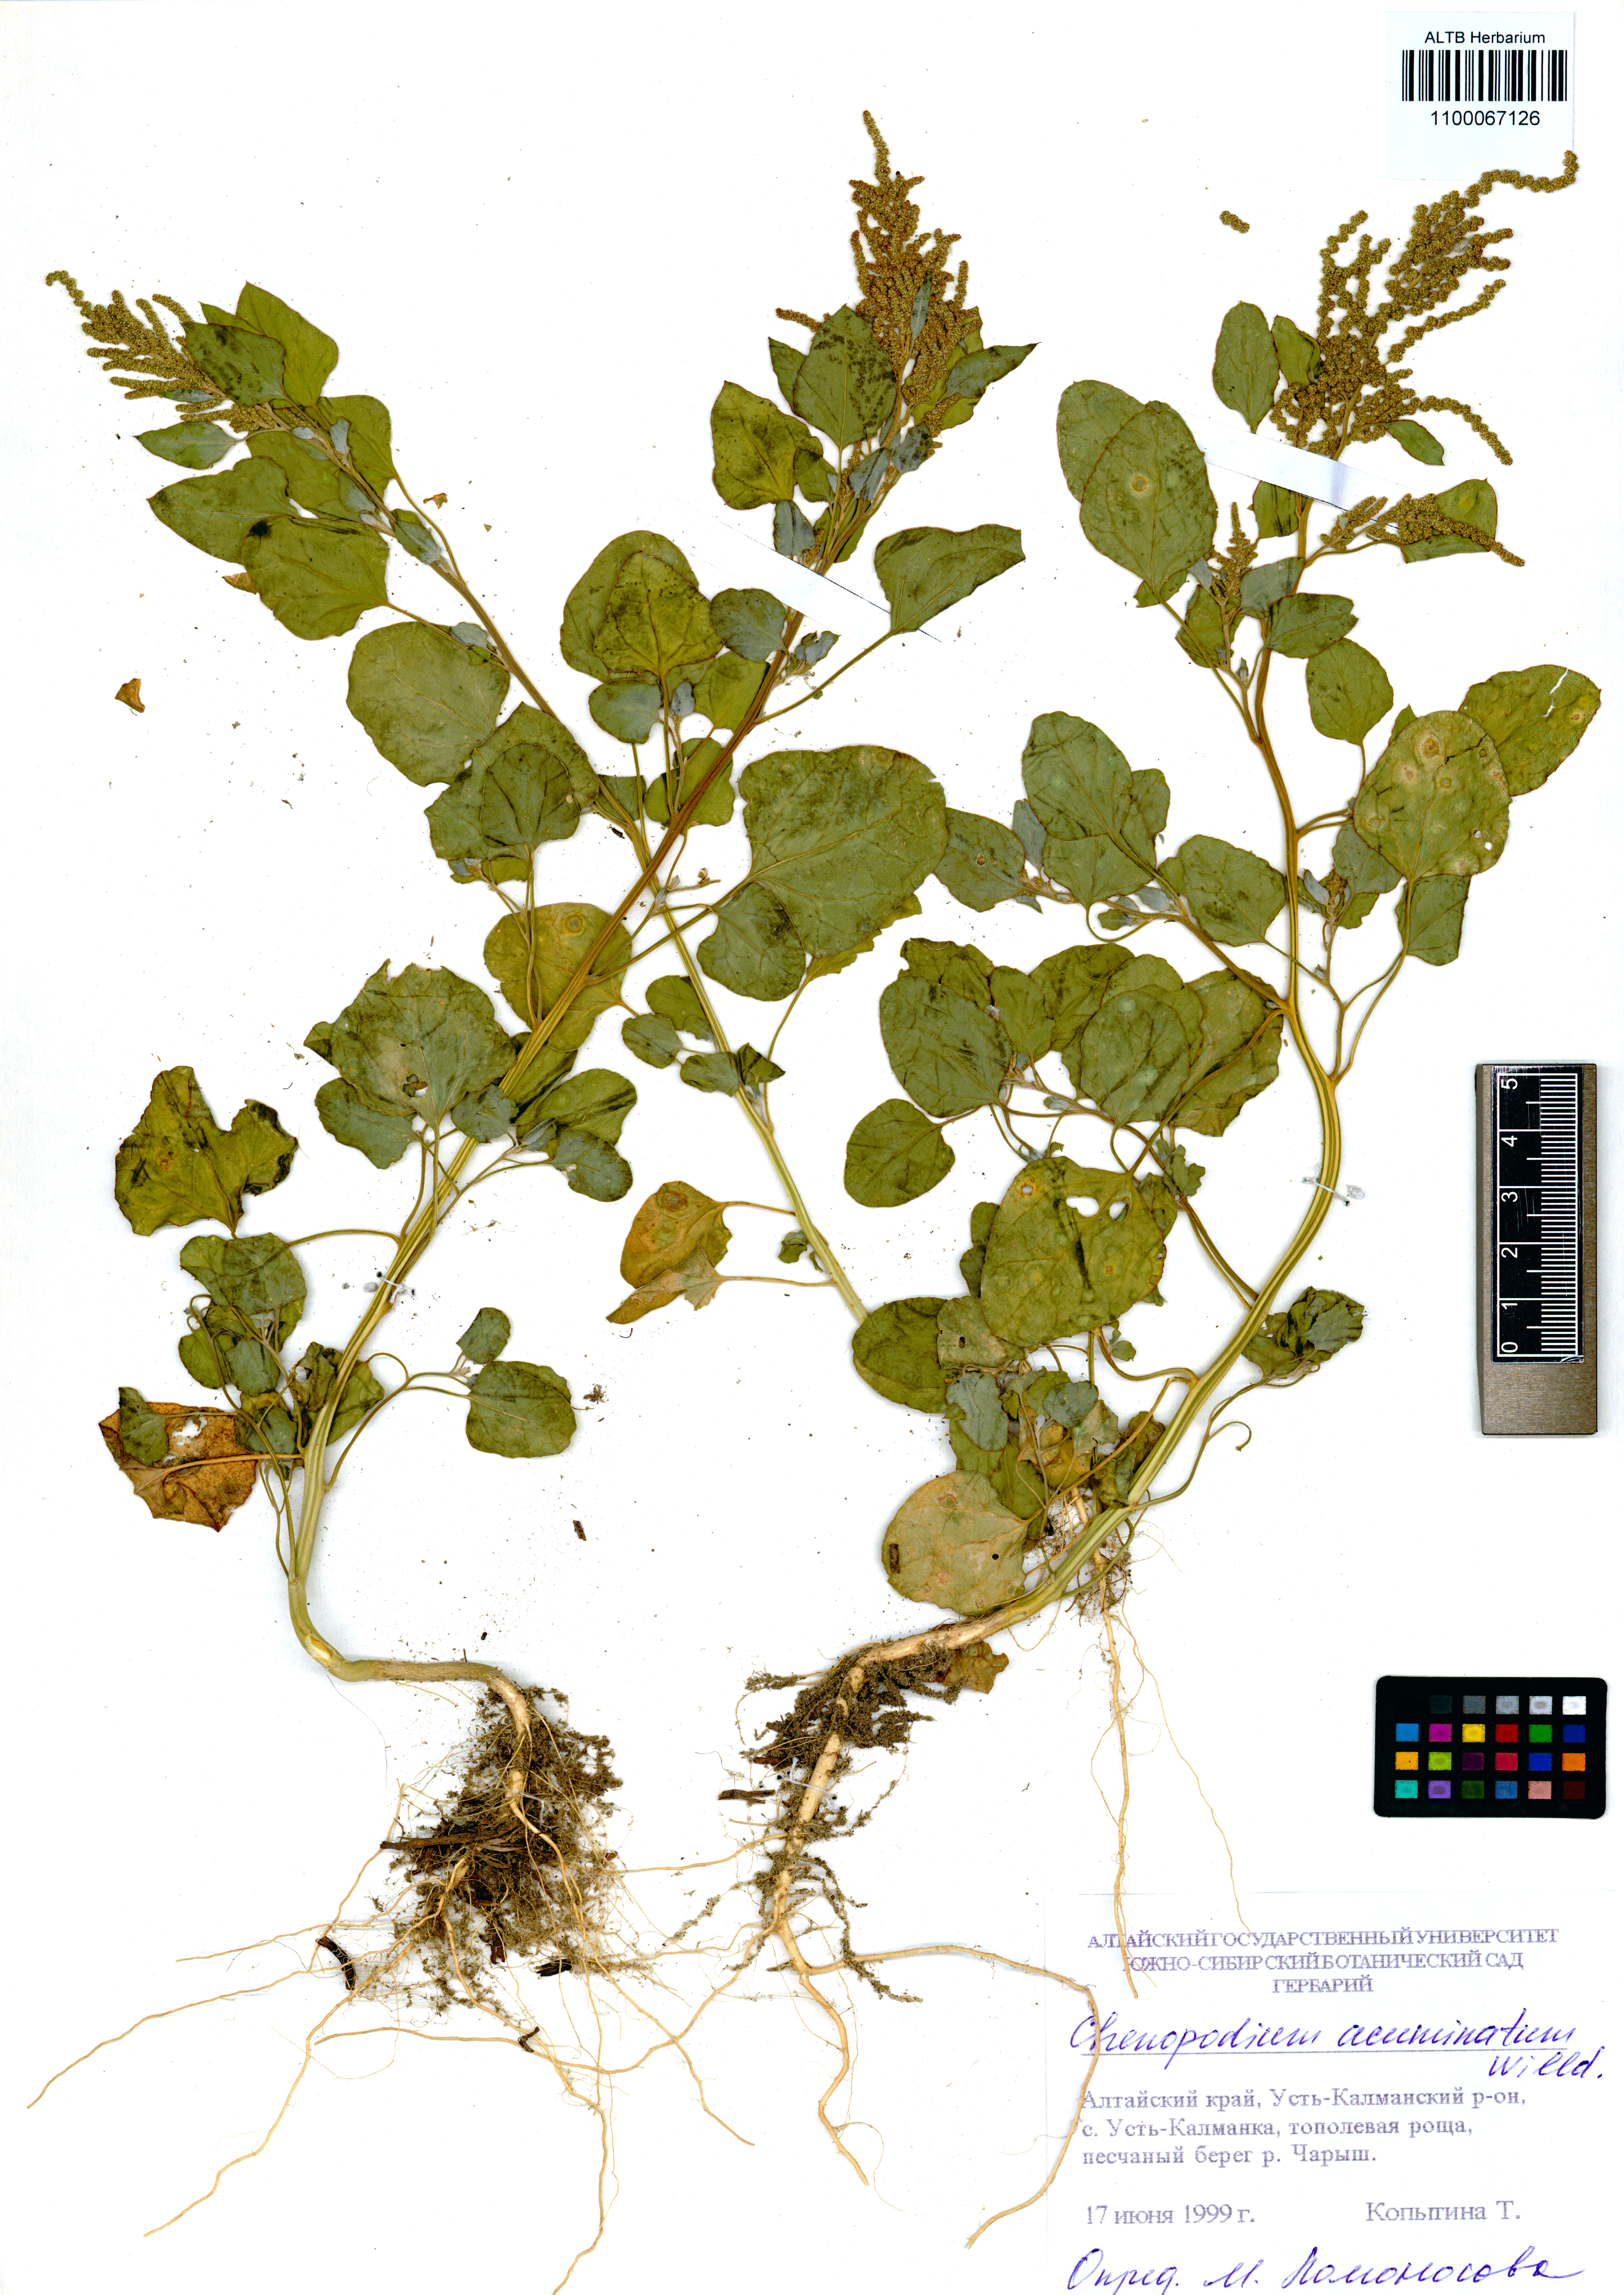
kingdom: Plantae
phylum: Tracheophyta
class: Magnoliopsida
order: Caryophyllales
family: Amaranthaceae
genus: Chenopodium
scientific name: Chenopodium acuminatum
